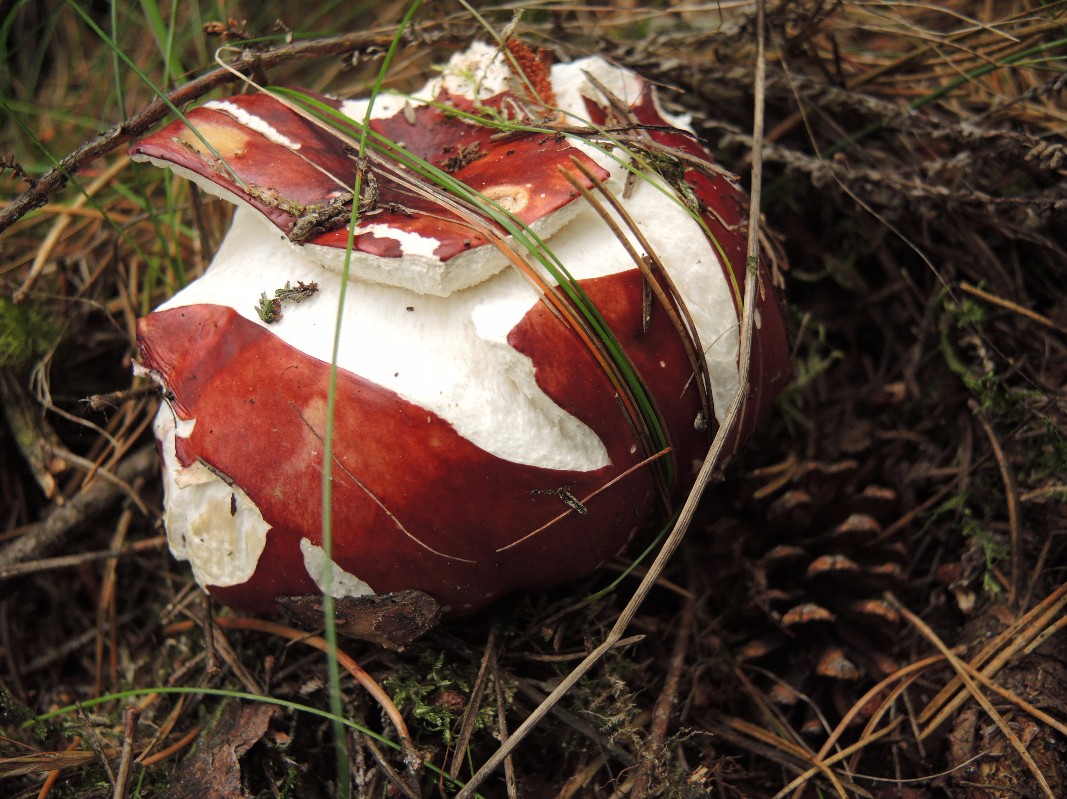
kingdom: Fungi
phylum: Basidiomycota
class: Agaricomycetes
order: Russulales
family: Russulaceae
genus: Russula
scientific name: Russula paludosa
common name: prægtig skørhat
